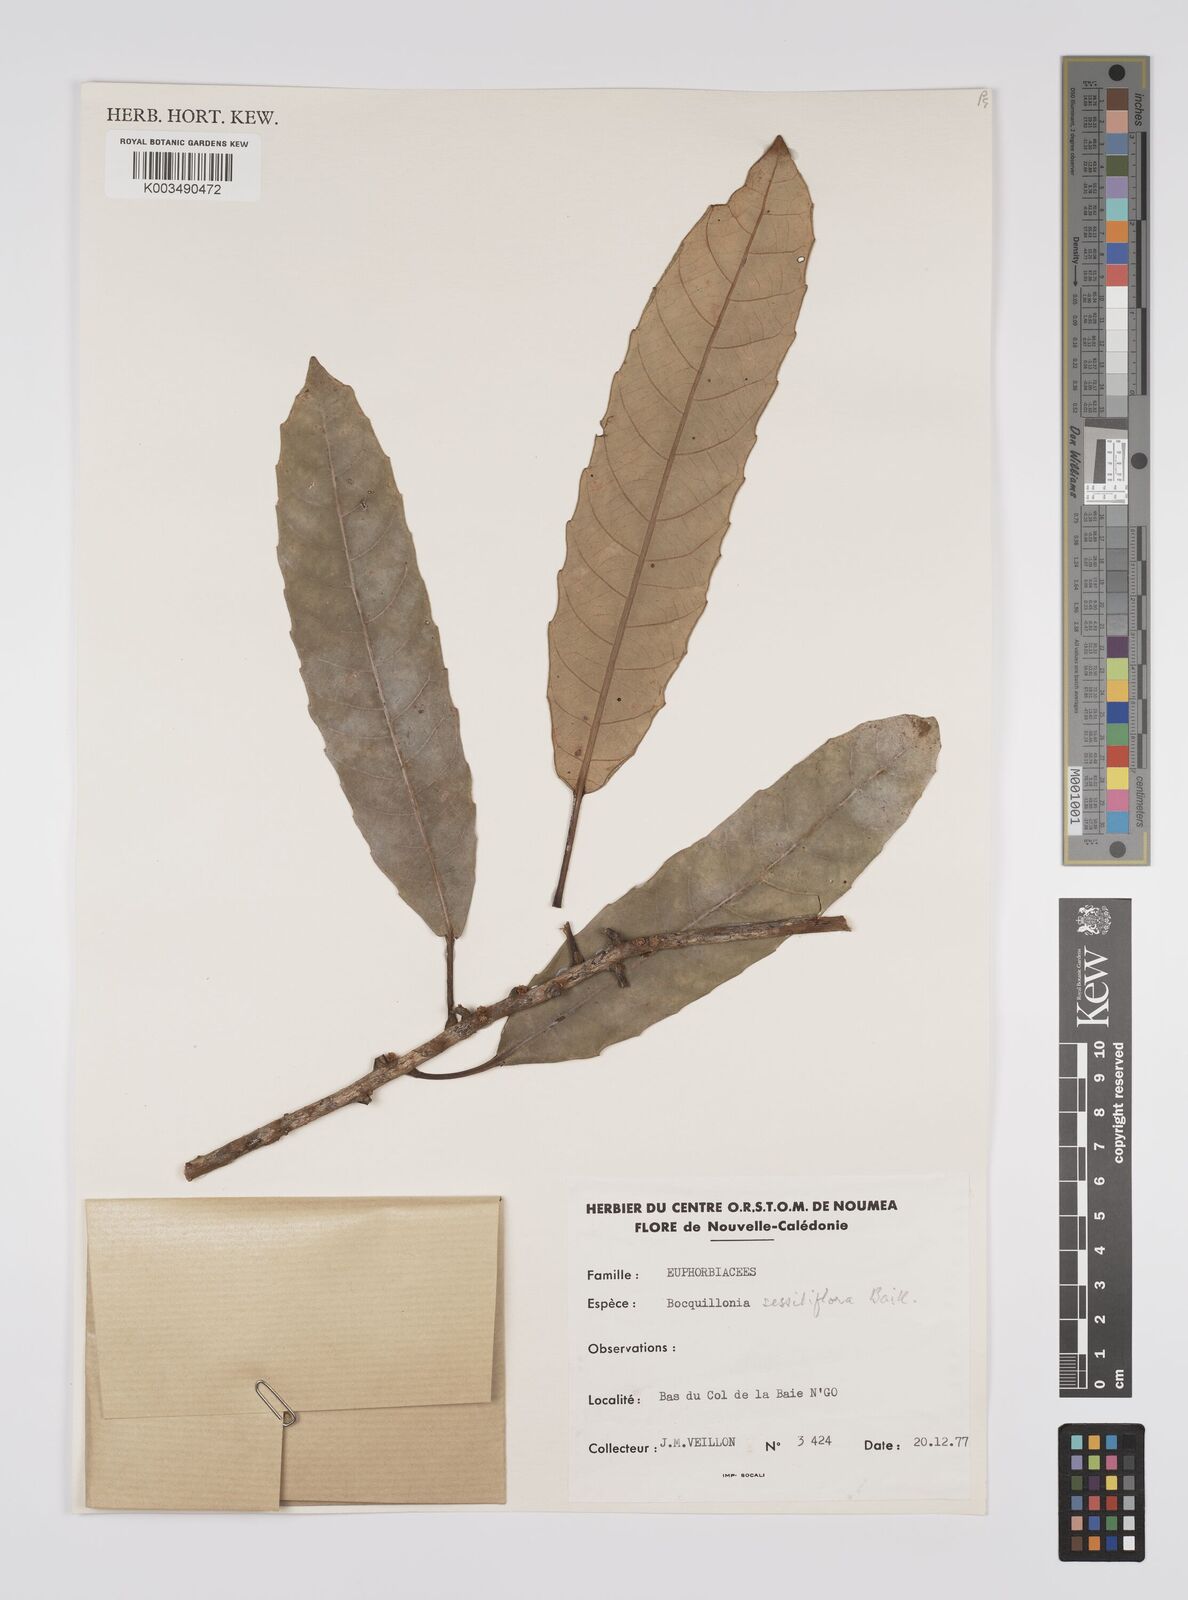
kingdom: Plantae
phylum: Tracheophyta
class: Magnoliopsida
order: Malpighiales
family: Euphorbiaceae
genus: Bocquillonia
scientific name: Bocquillonia sessiliflora
